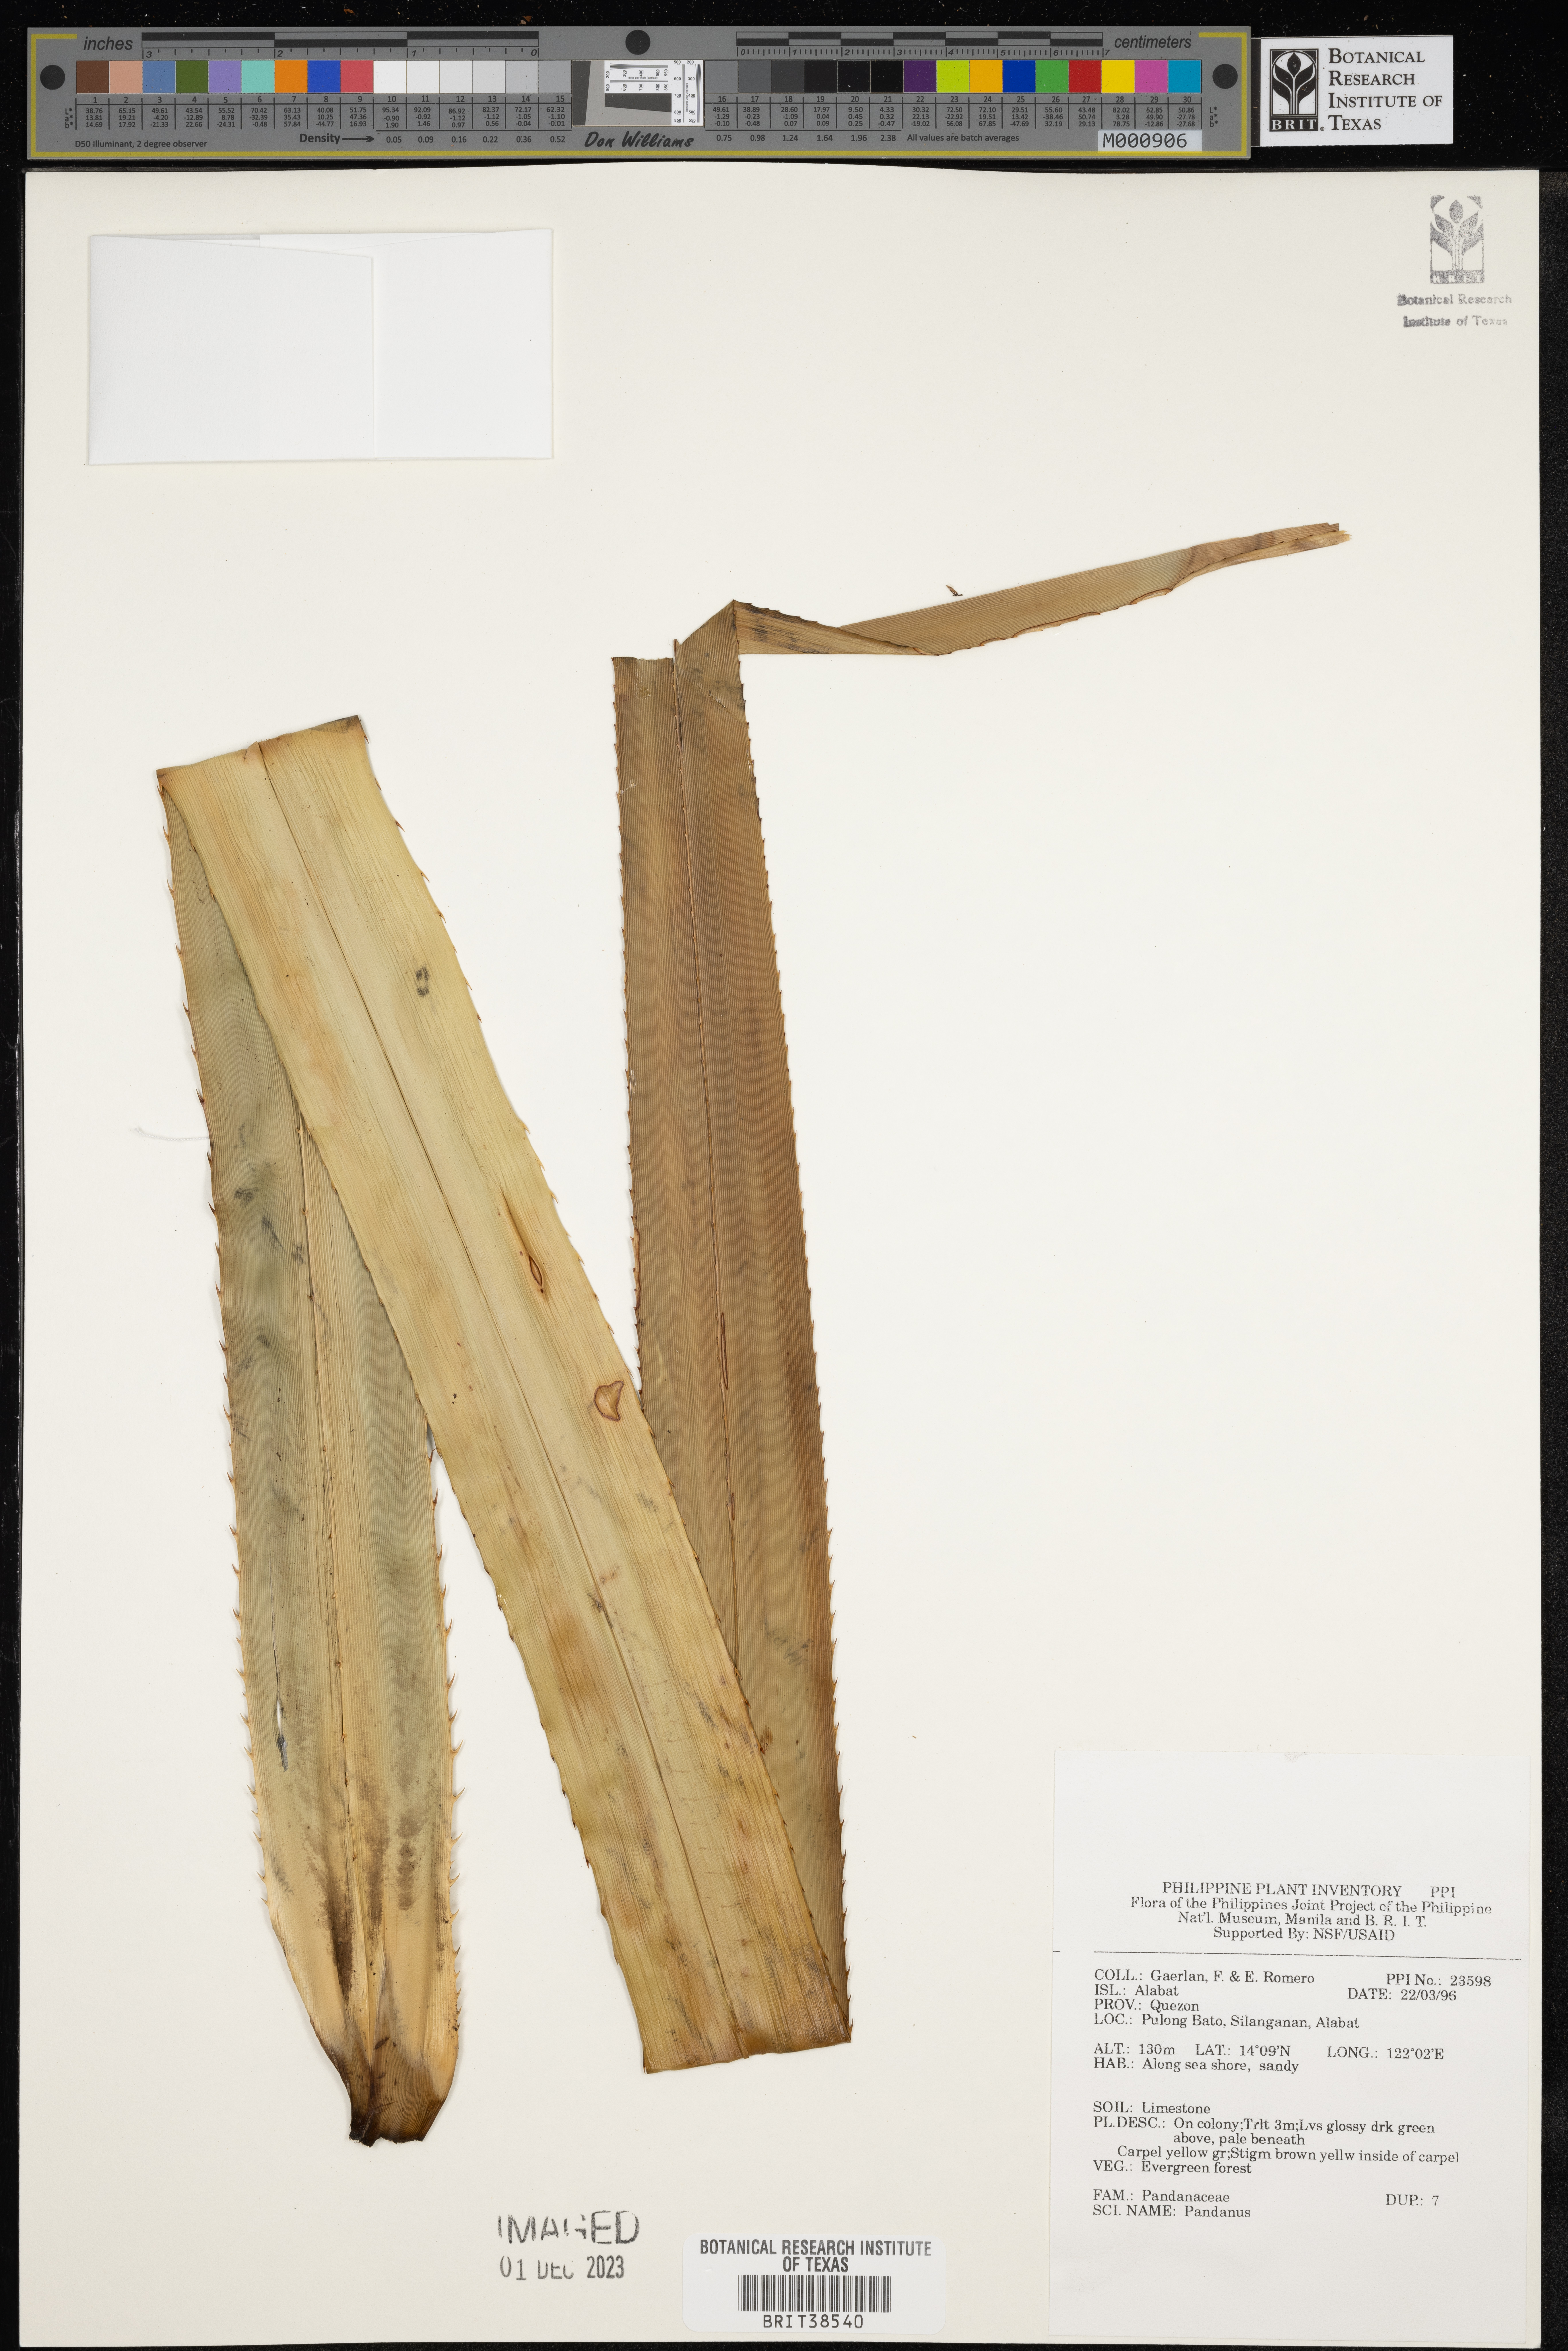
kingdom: Plantae
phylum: Tracheophyta
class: Liliopsida
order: Pandanales
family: Pandanaceae
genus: Pandanus
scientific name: Pandanus
